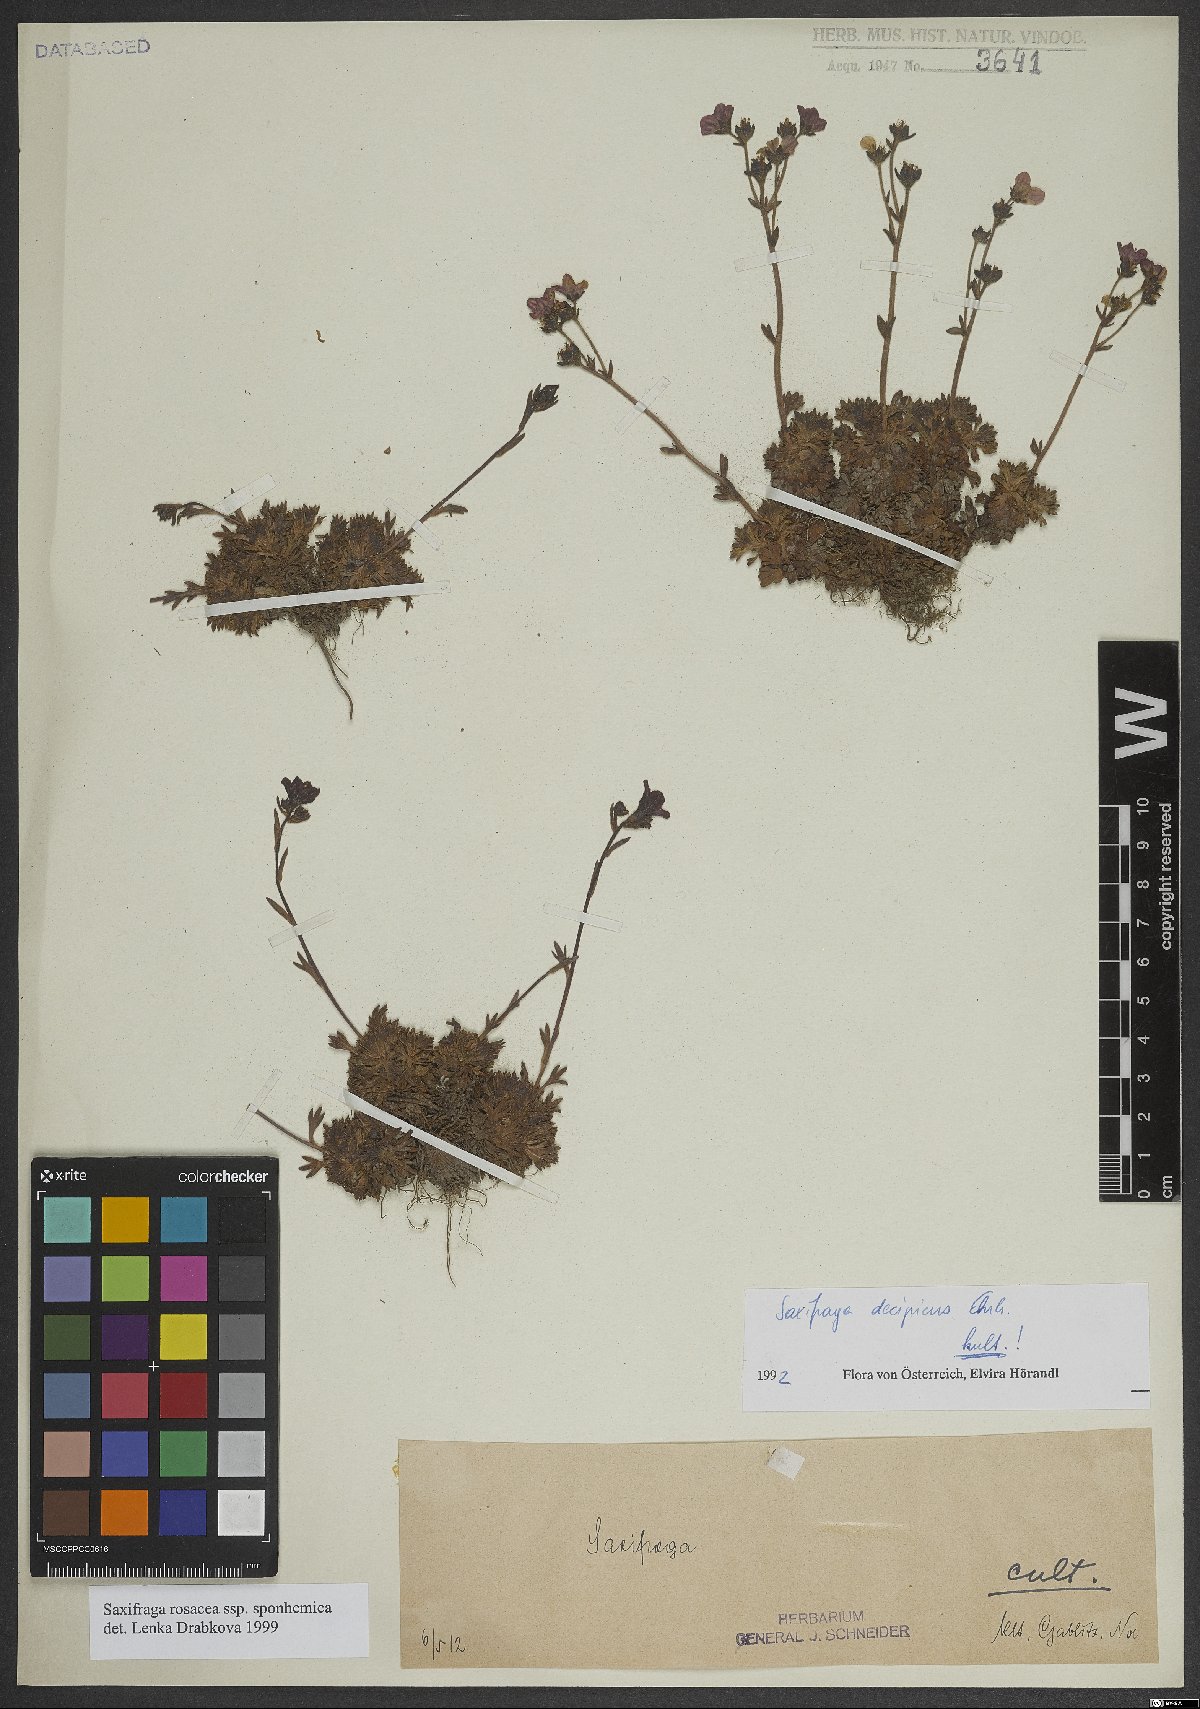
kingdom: Plantae
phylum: Tracheophyta
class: Magnoliopsida
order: Saxifragales
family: Saxifragaceae
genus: Saxifraga
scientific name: Saxifraga rosacea
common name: Irish saxifrage
